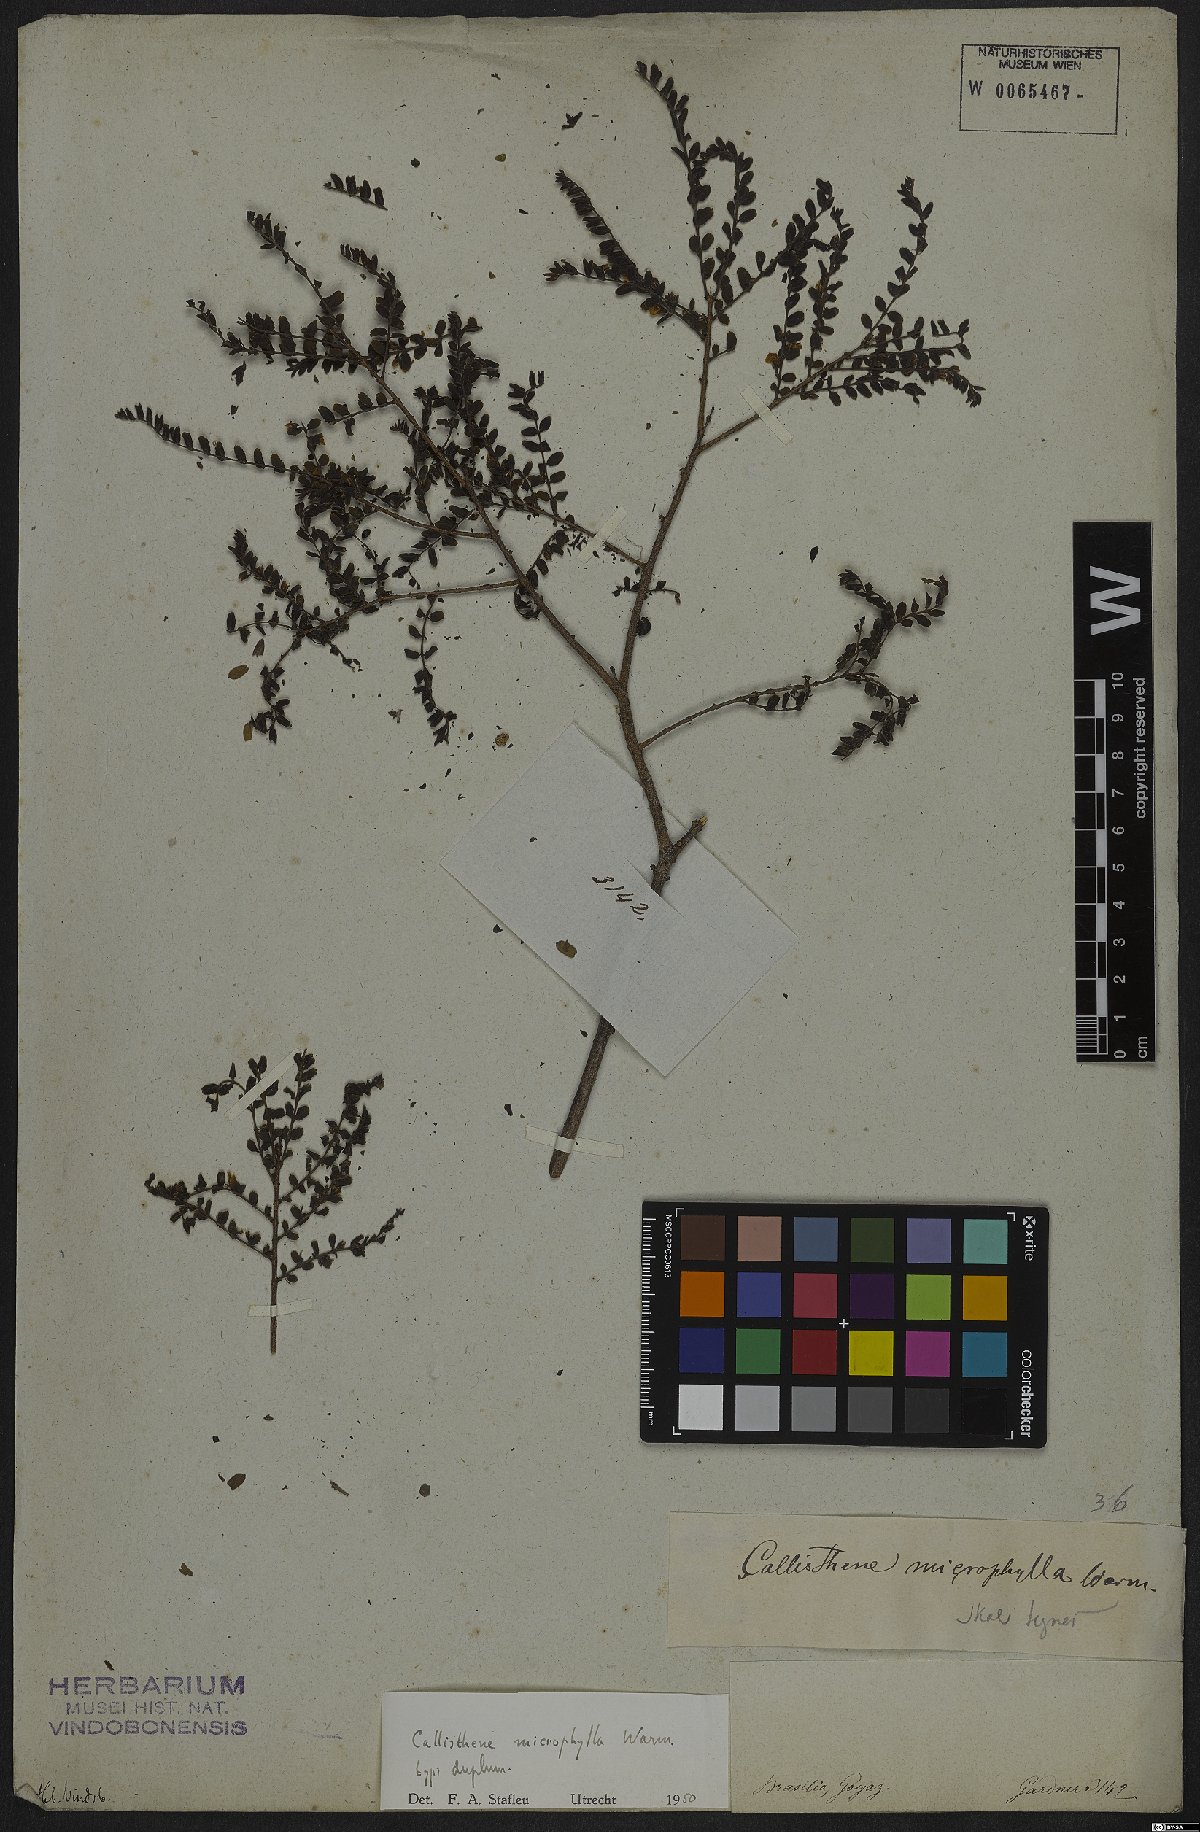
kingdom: Plantae
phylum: Tracheophyta
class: Magnoliopsida
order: Myrtales
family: Vochysiaceae
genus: Callisthene
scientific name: Callisthene microphylla
